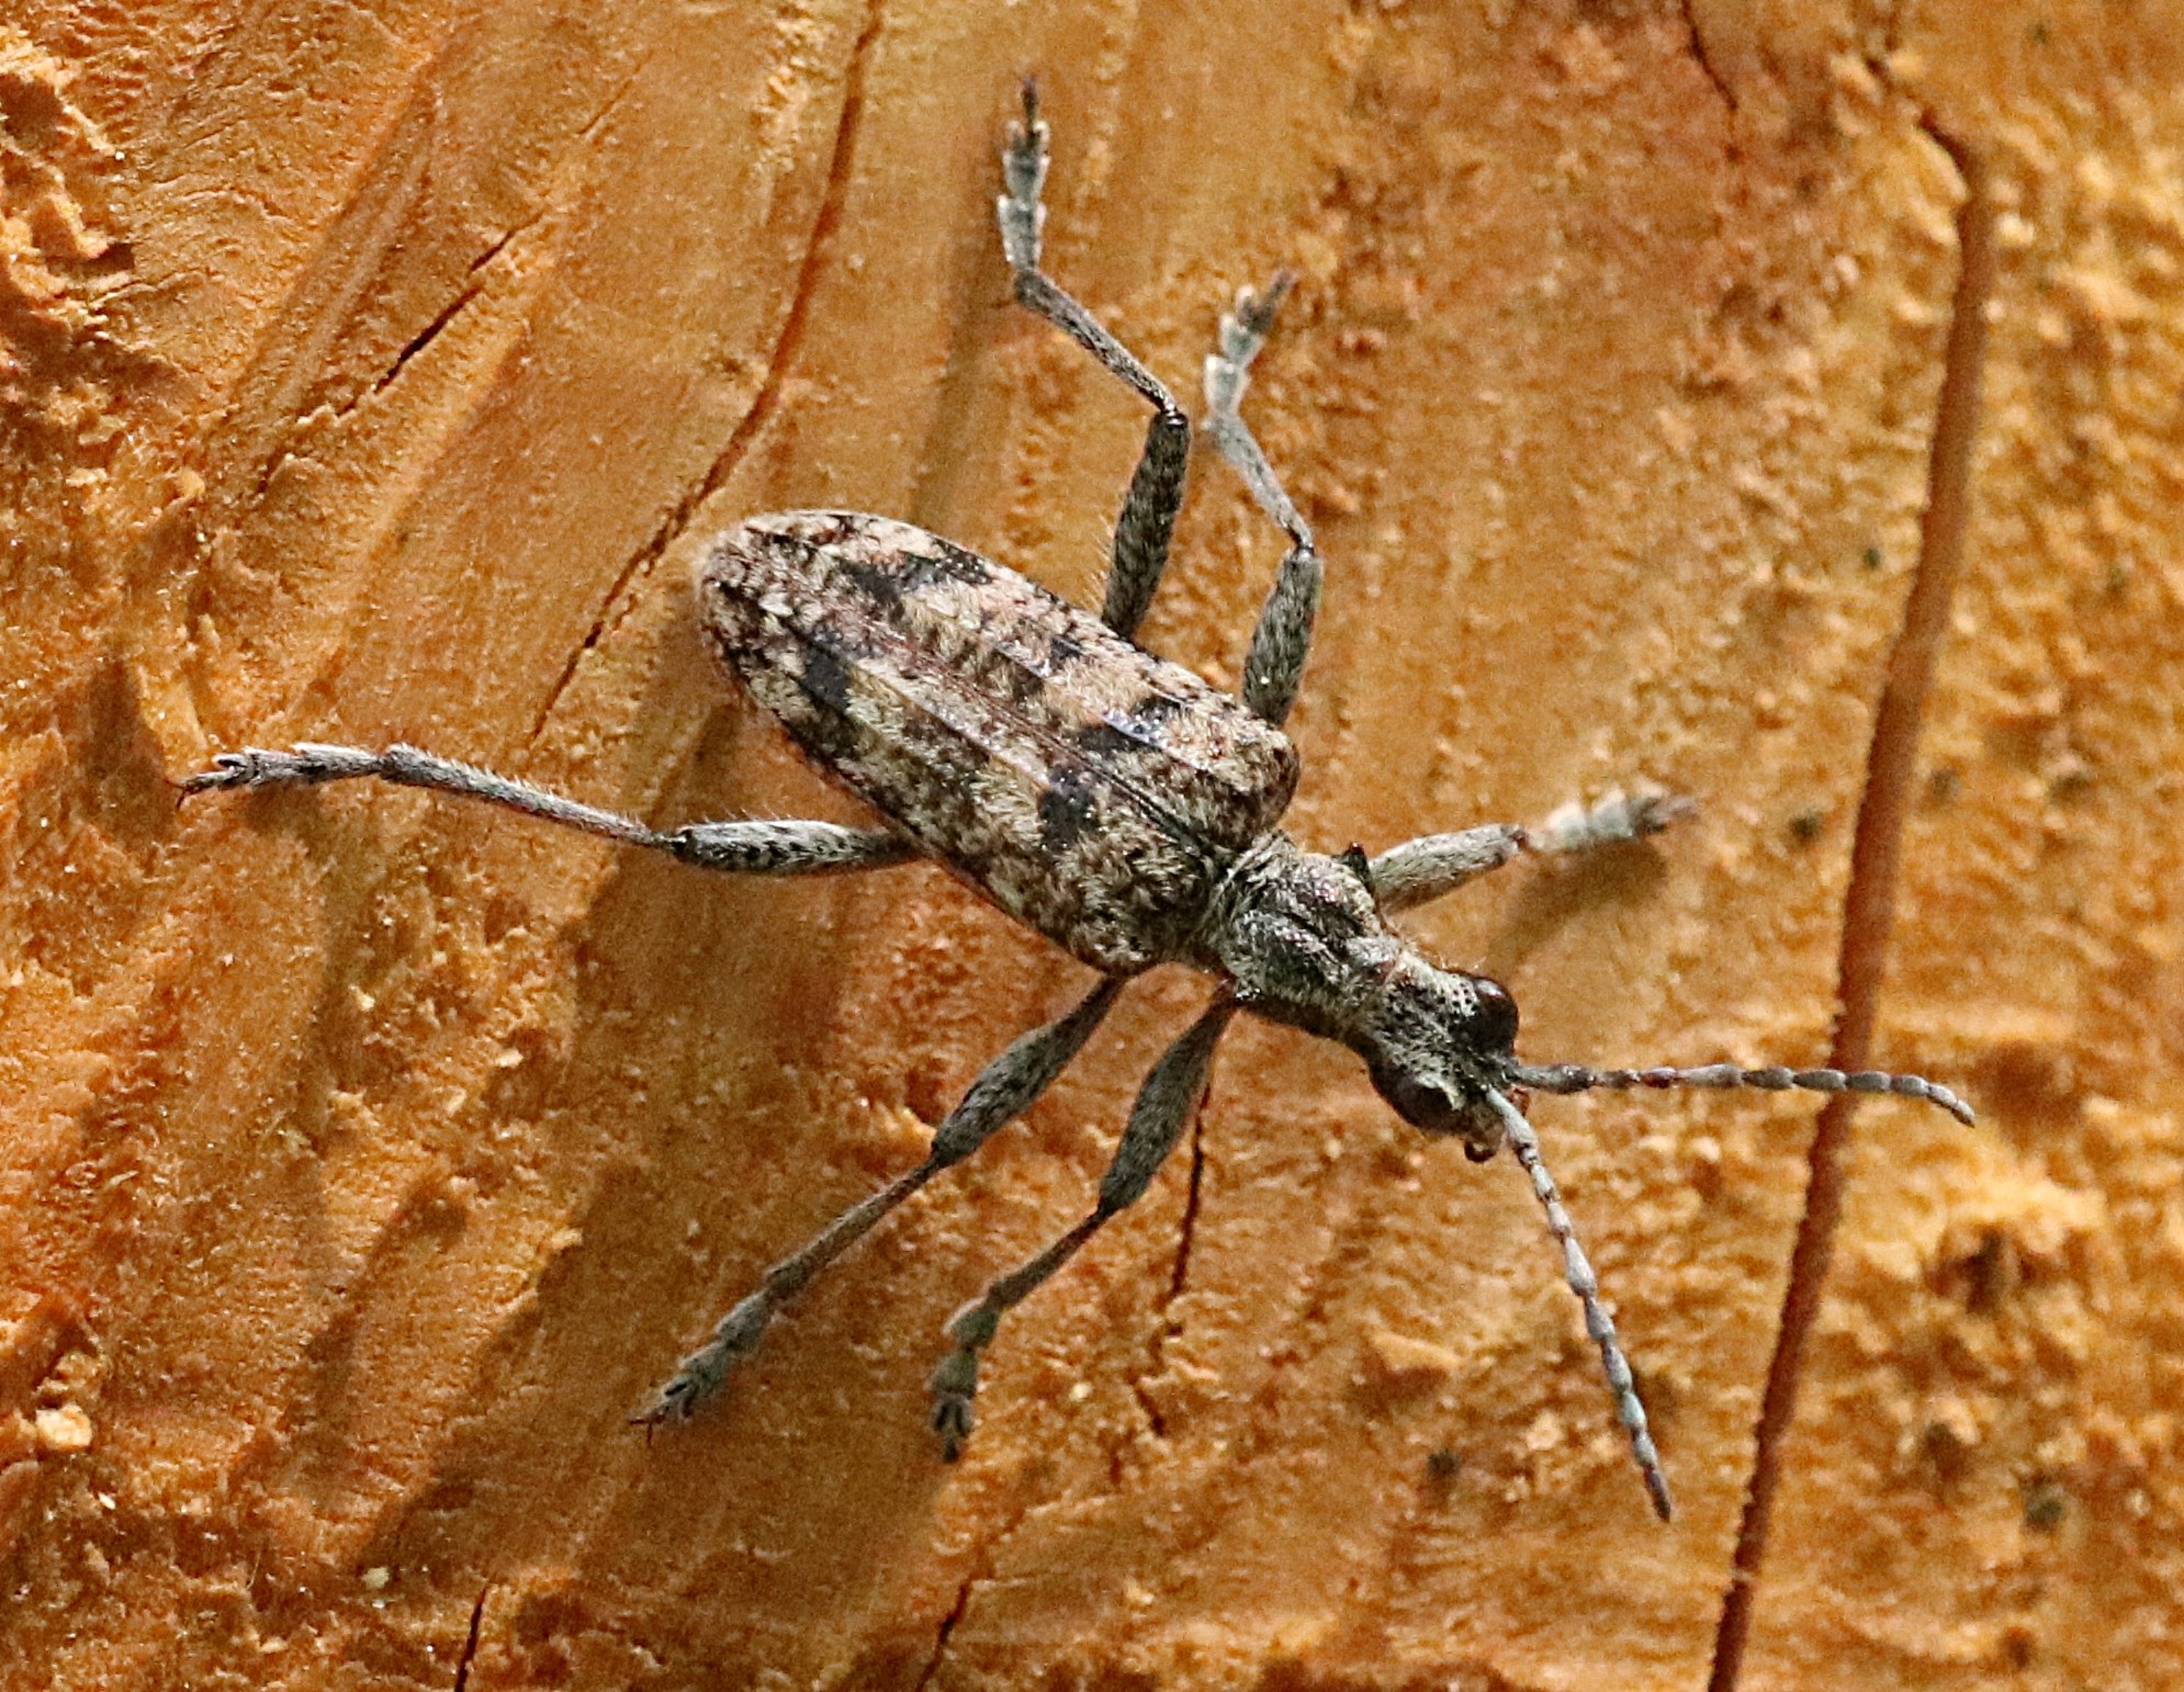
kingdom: Animalia
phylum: Arthropoda
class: Insecta
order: Coleoptera
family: Cerambycidae
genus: Rhagium
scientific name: Rhagium inquisitor
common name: Fyrretandbuk
